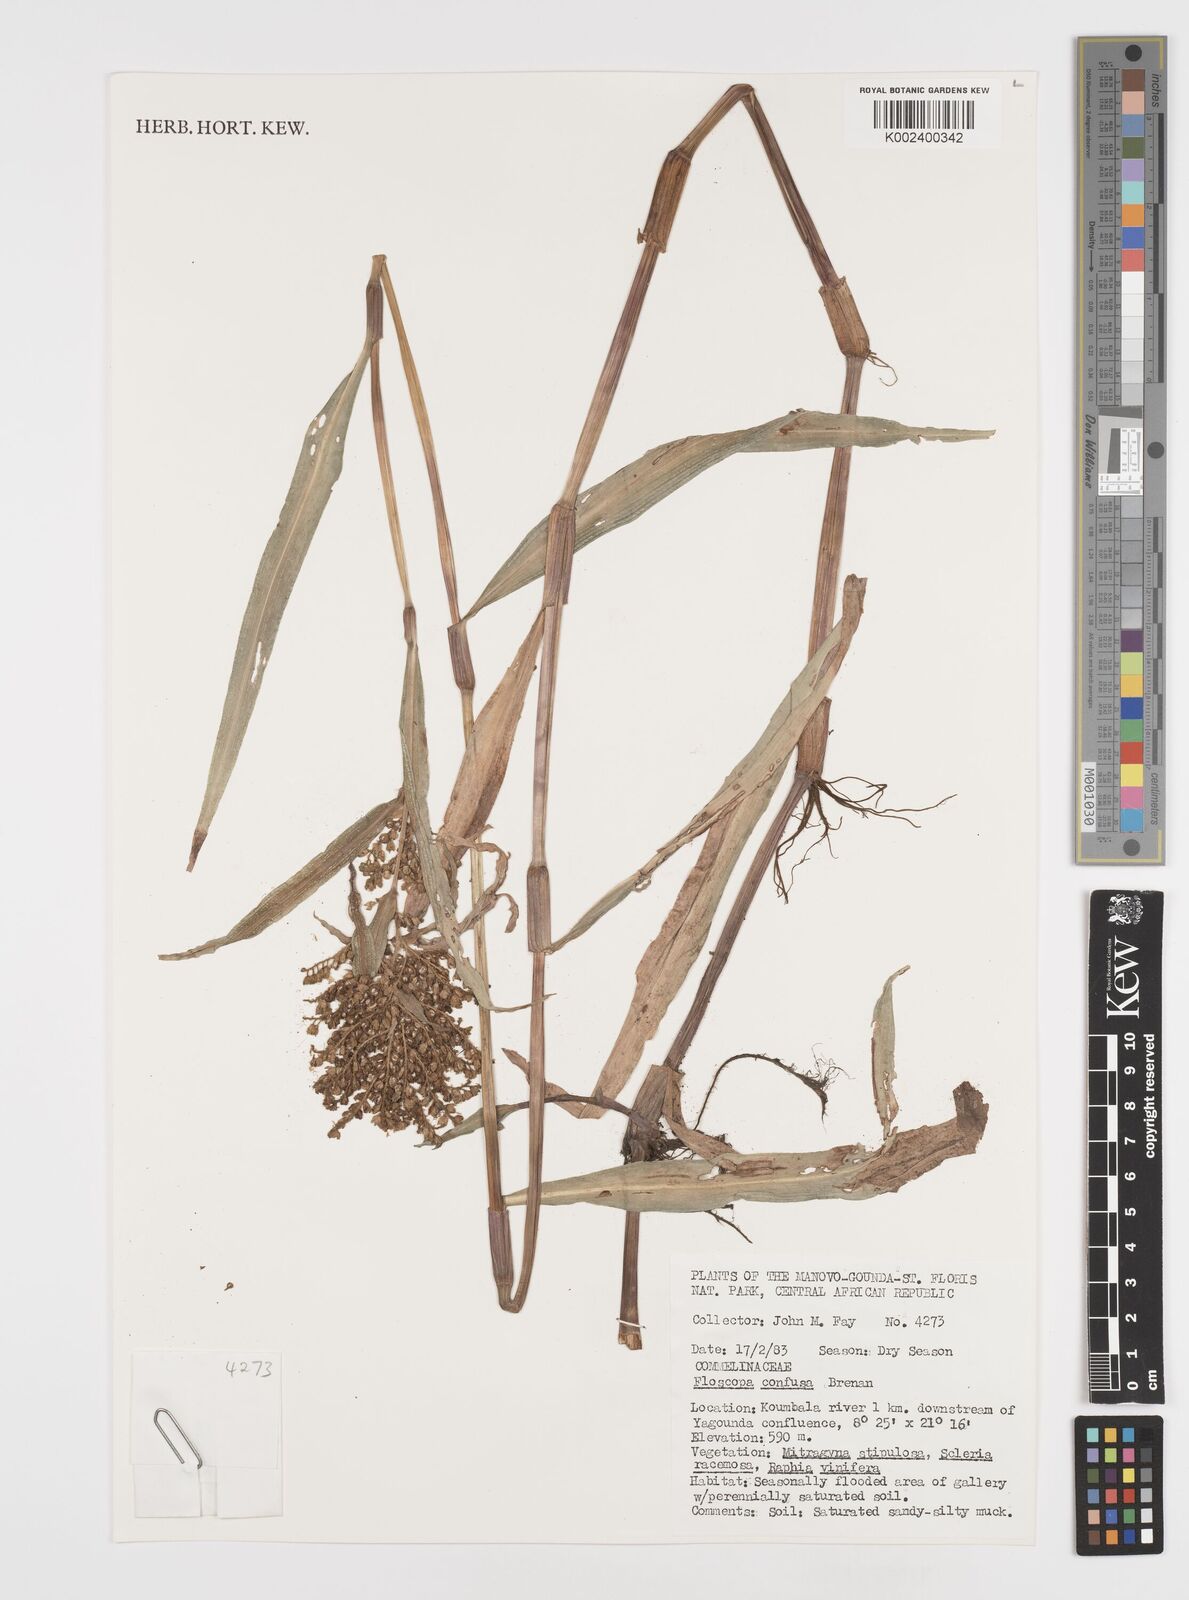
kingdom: Plantae
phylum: Tracheophyta
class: Liliopsida
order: Commelinales
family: Commelinaceae
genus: Floscopa
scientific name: Floscopa confusa
